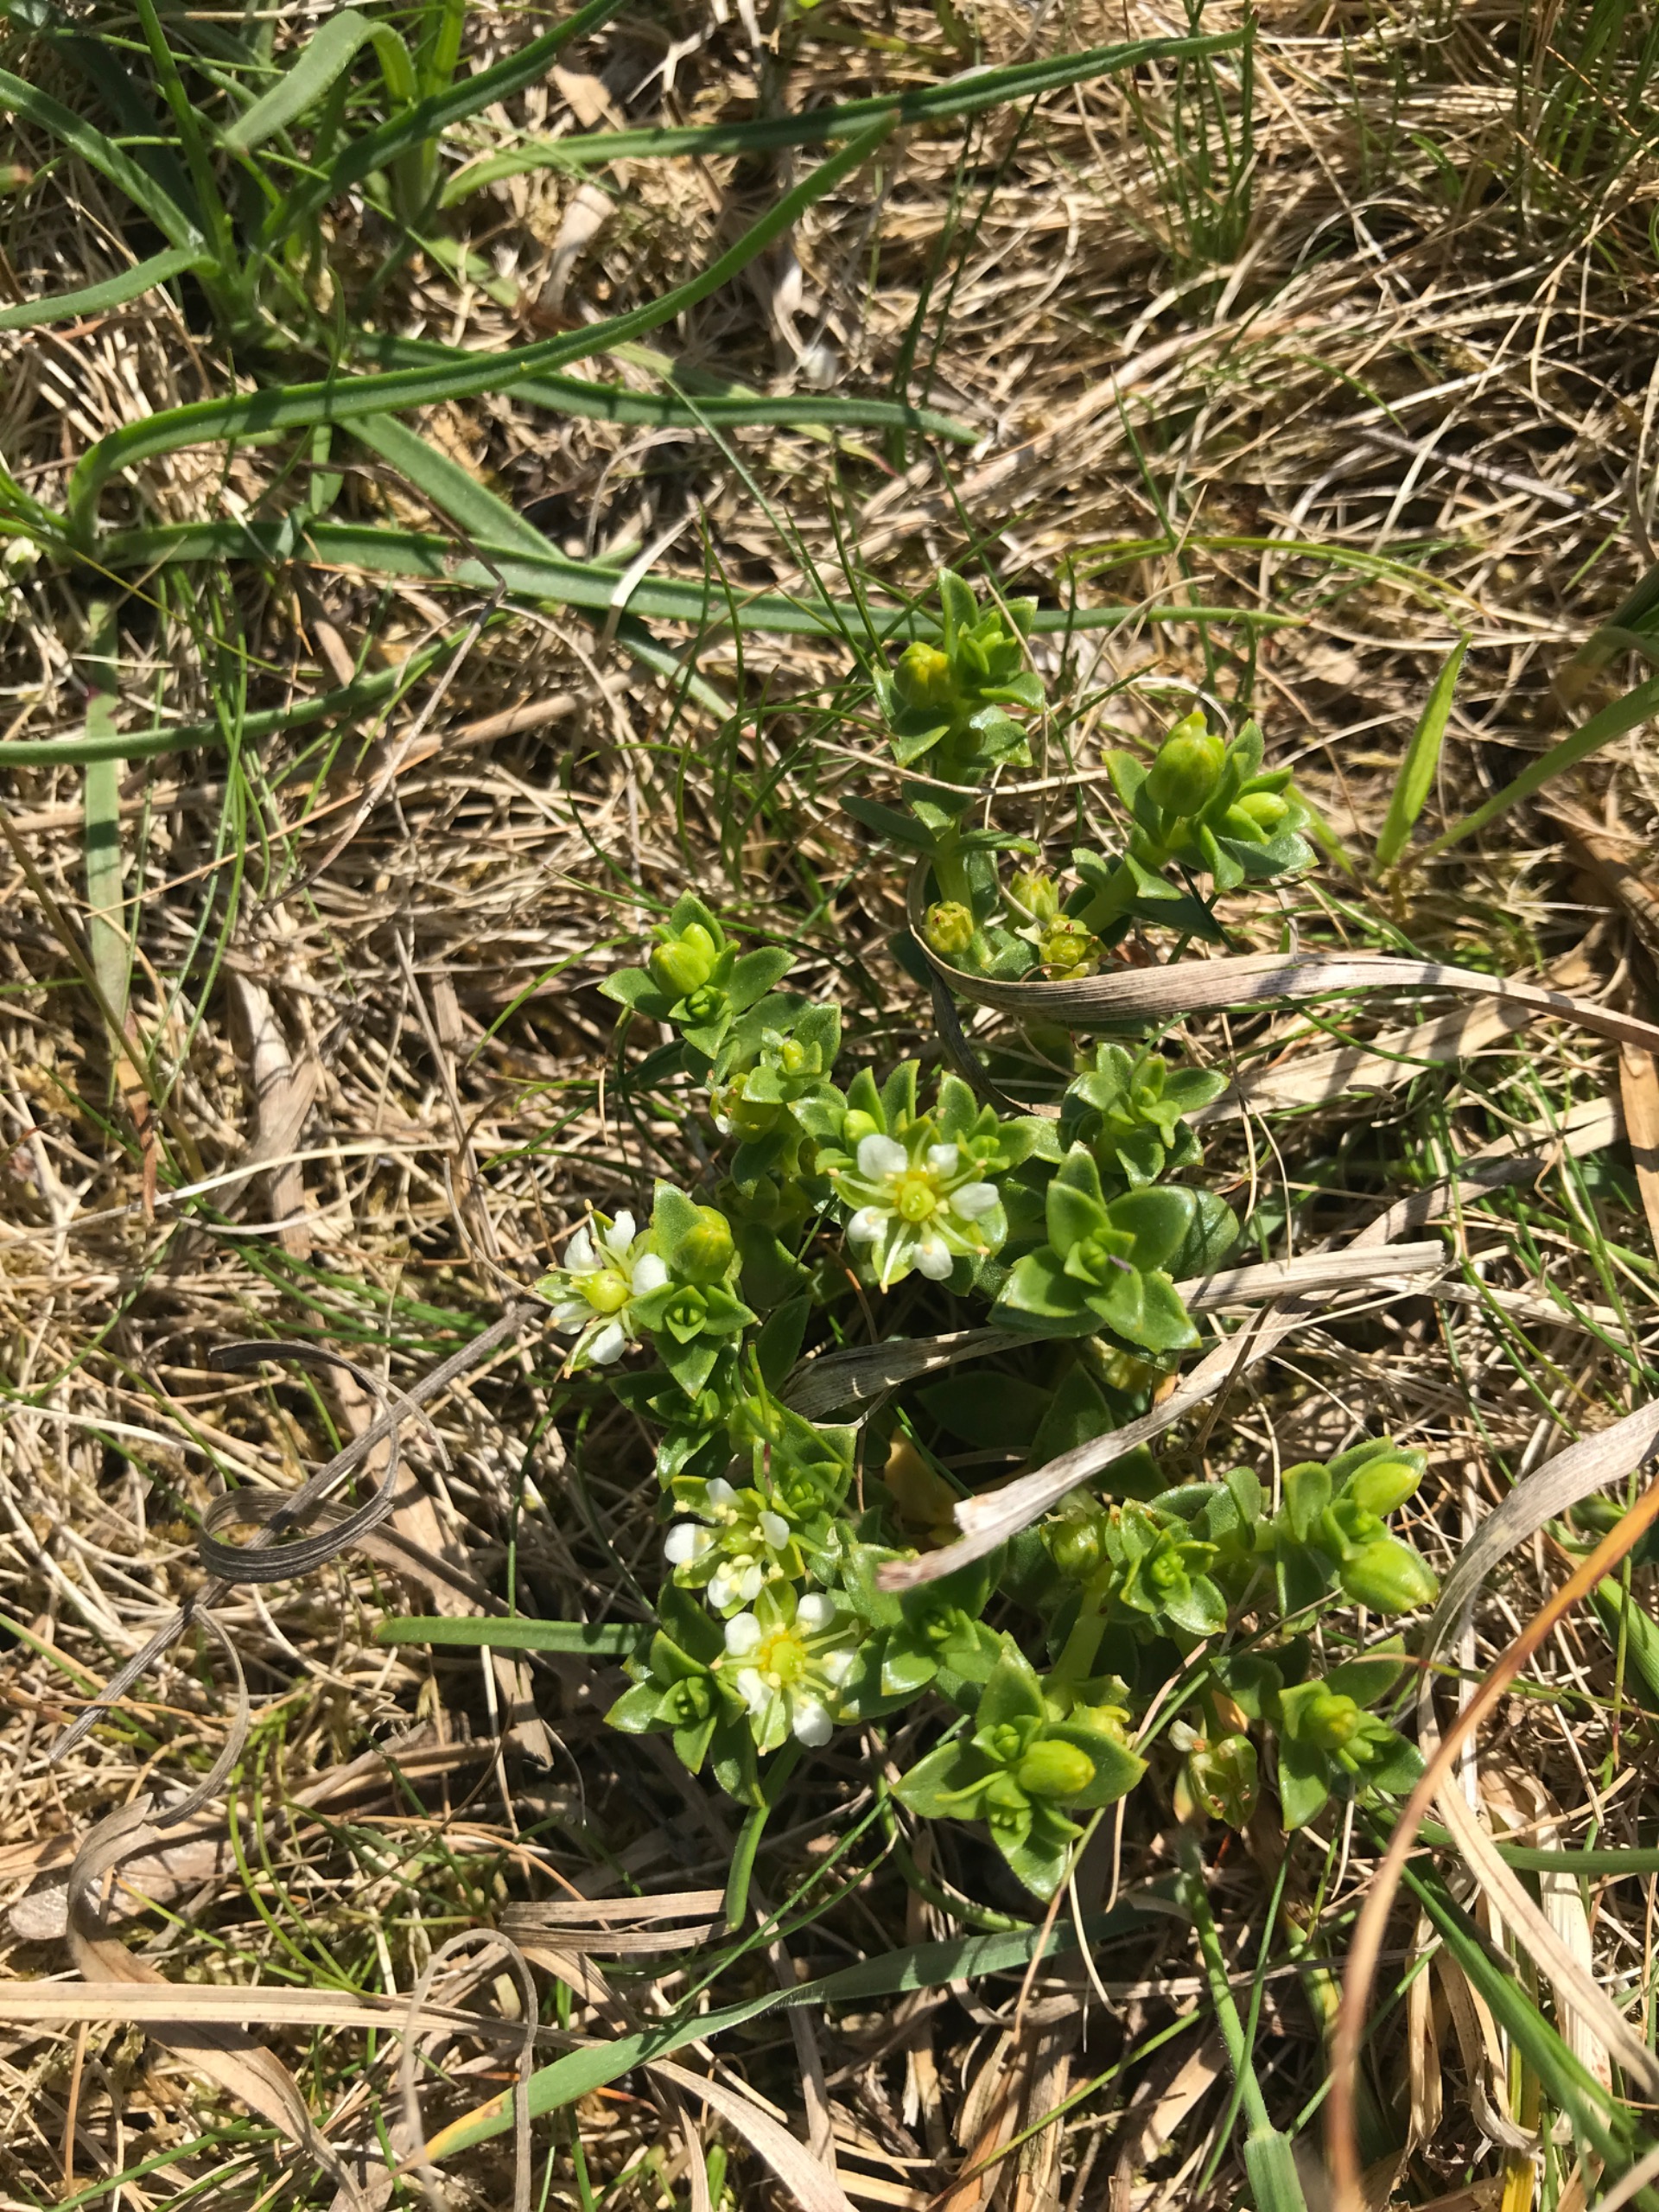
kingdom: Plantae
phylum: Tracheophyta
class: Magnoliopsida
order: Caryophyllales
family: Caryophyllaceae
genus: Honckenya
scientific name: Honckenya peploides
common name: Strandarve
